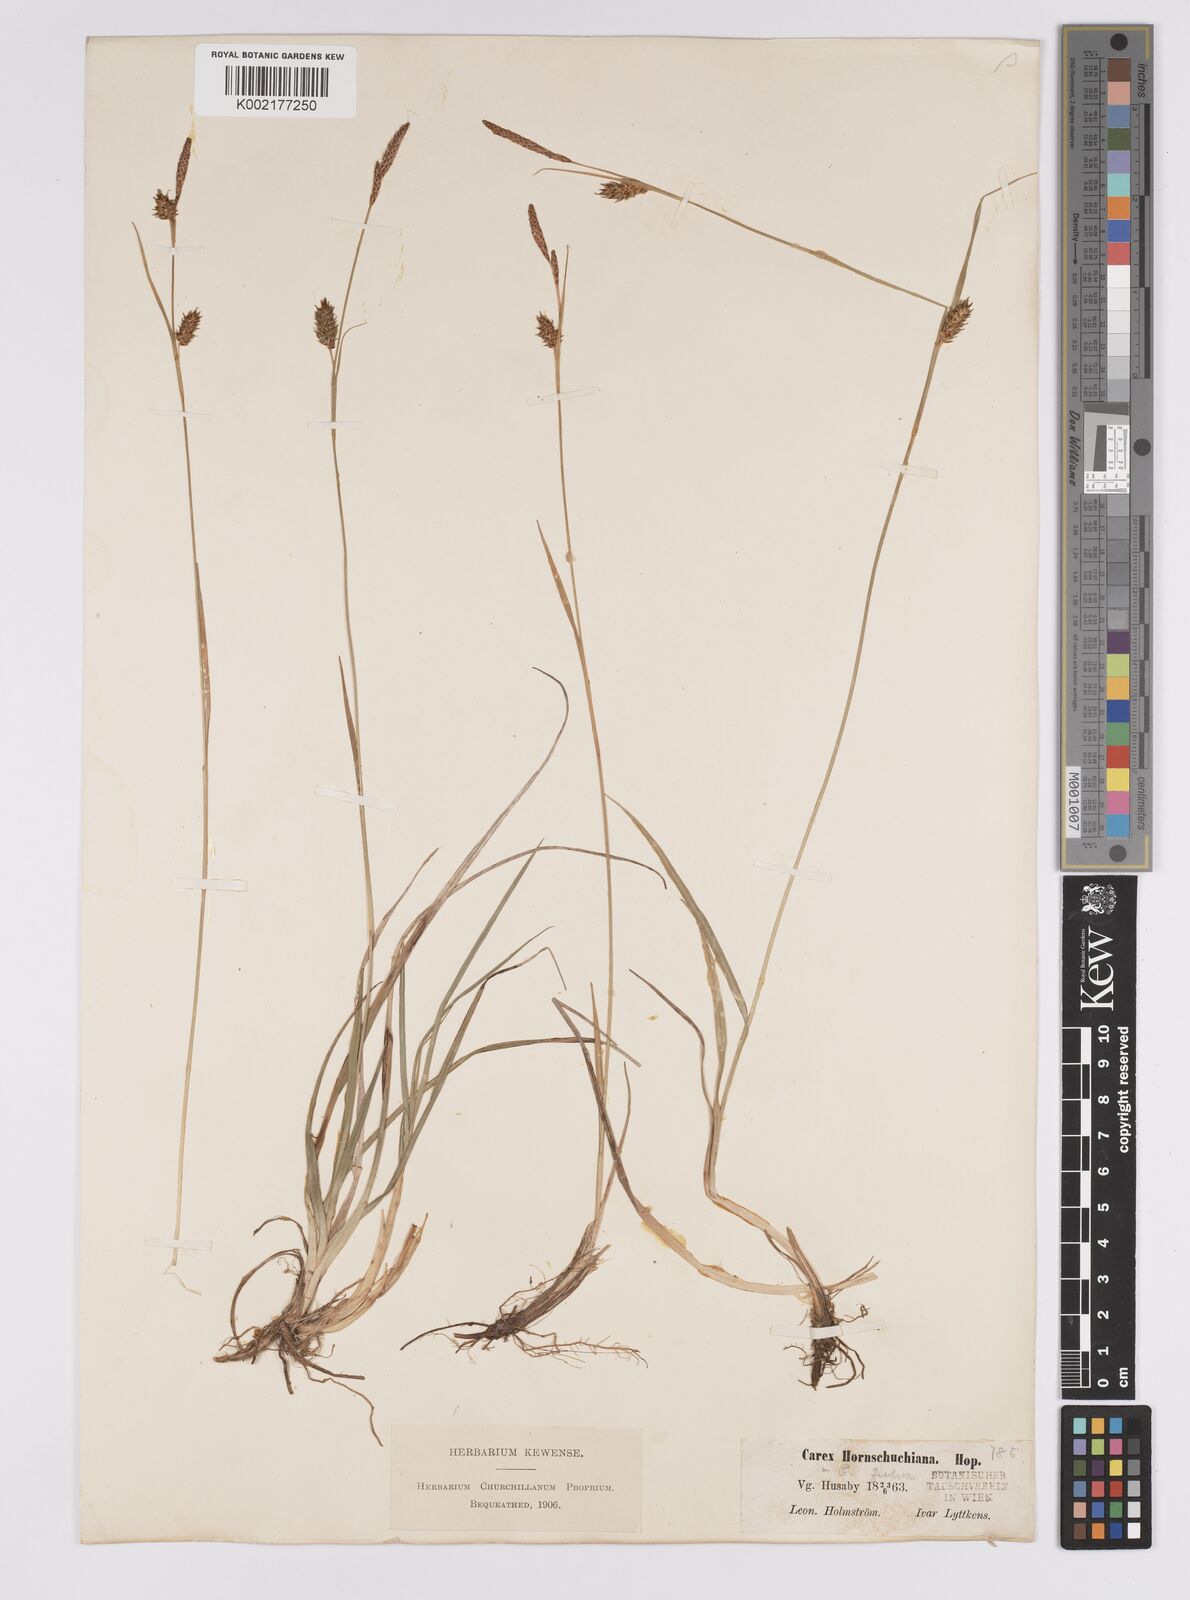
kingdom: Plantae
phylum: Tracheophyta
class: Liliopsida
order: Poales
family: Cyperaceae
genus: Carex
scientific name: Carex hostiana
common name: Tawny sedge
